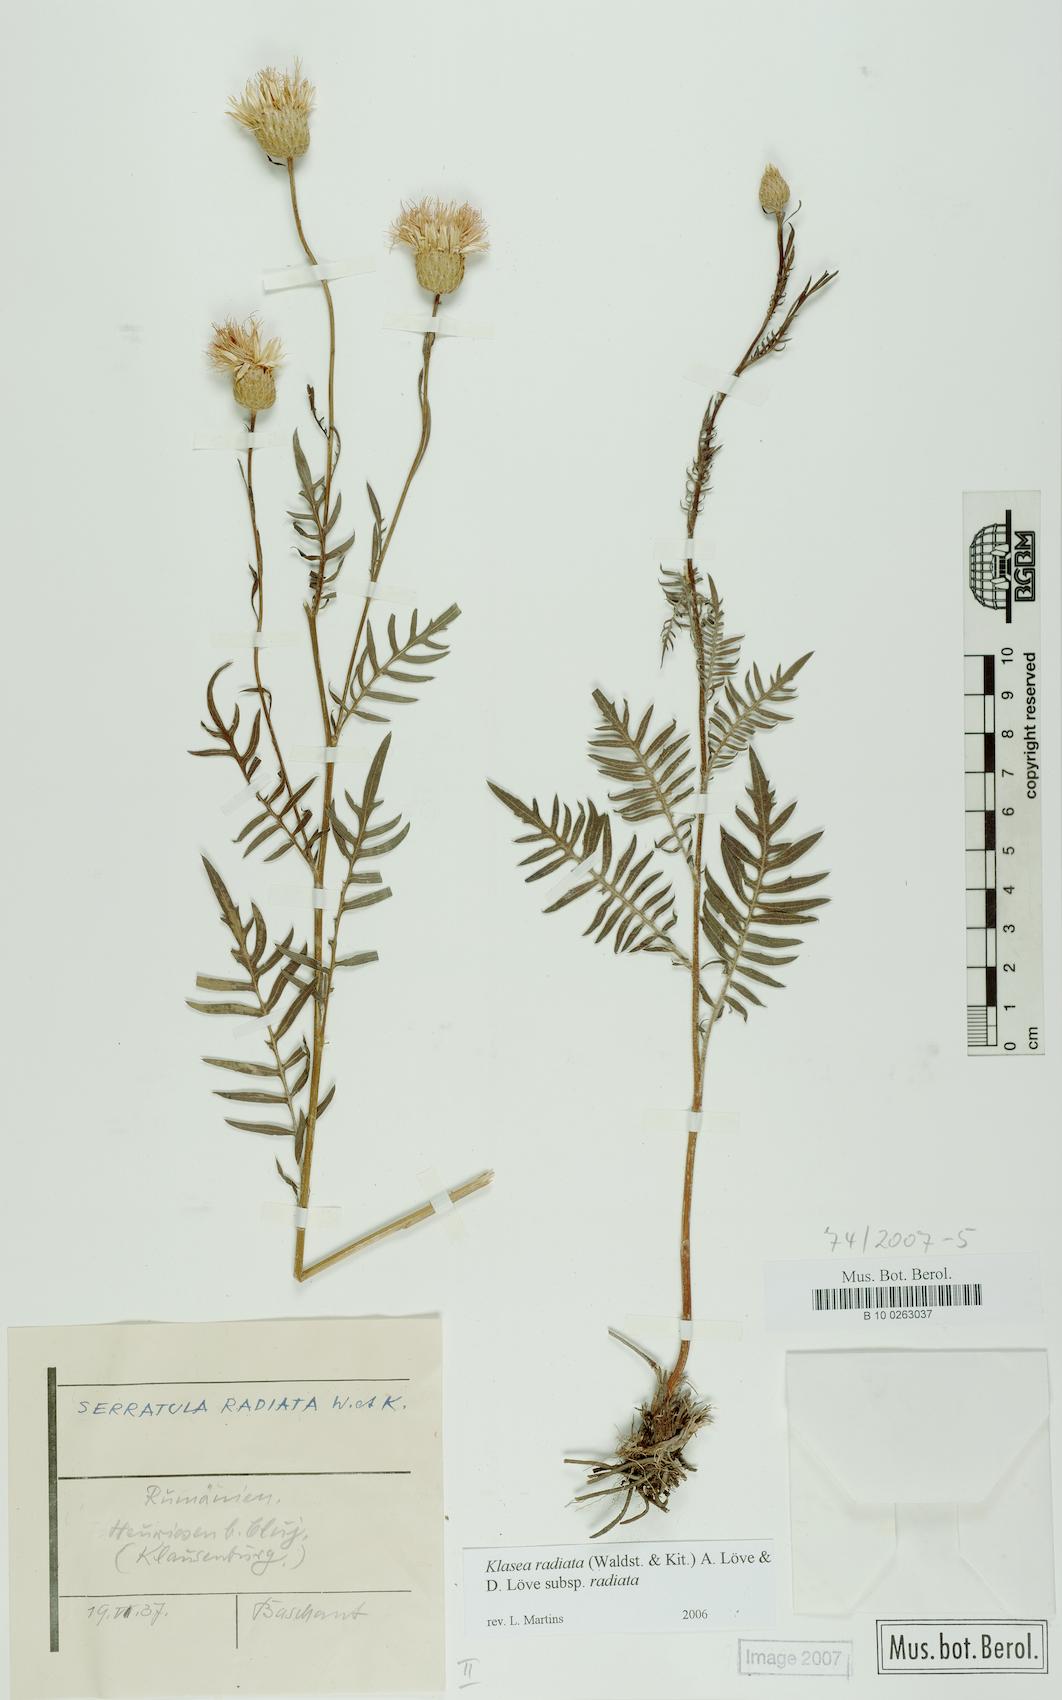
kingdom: Plantae
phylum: Tracheophyta
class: Magnoliopsida
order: Asterales
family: Asteraceae
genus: Klasea
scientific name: Klasea radiata
